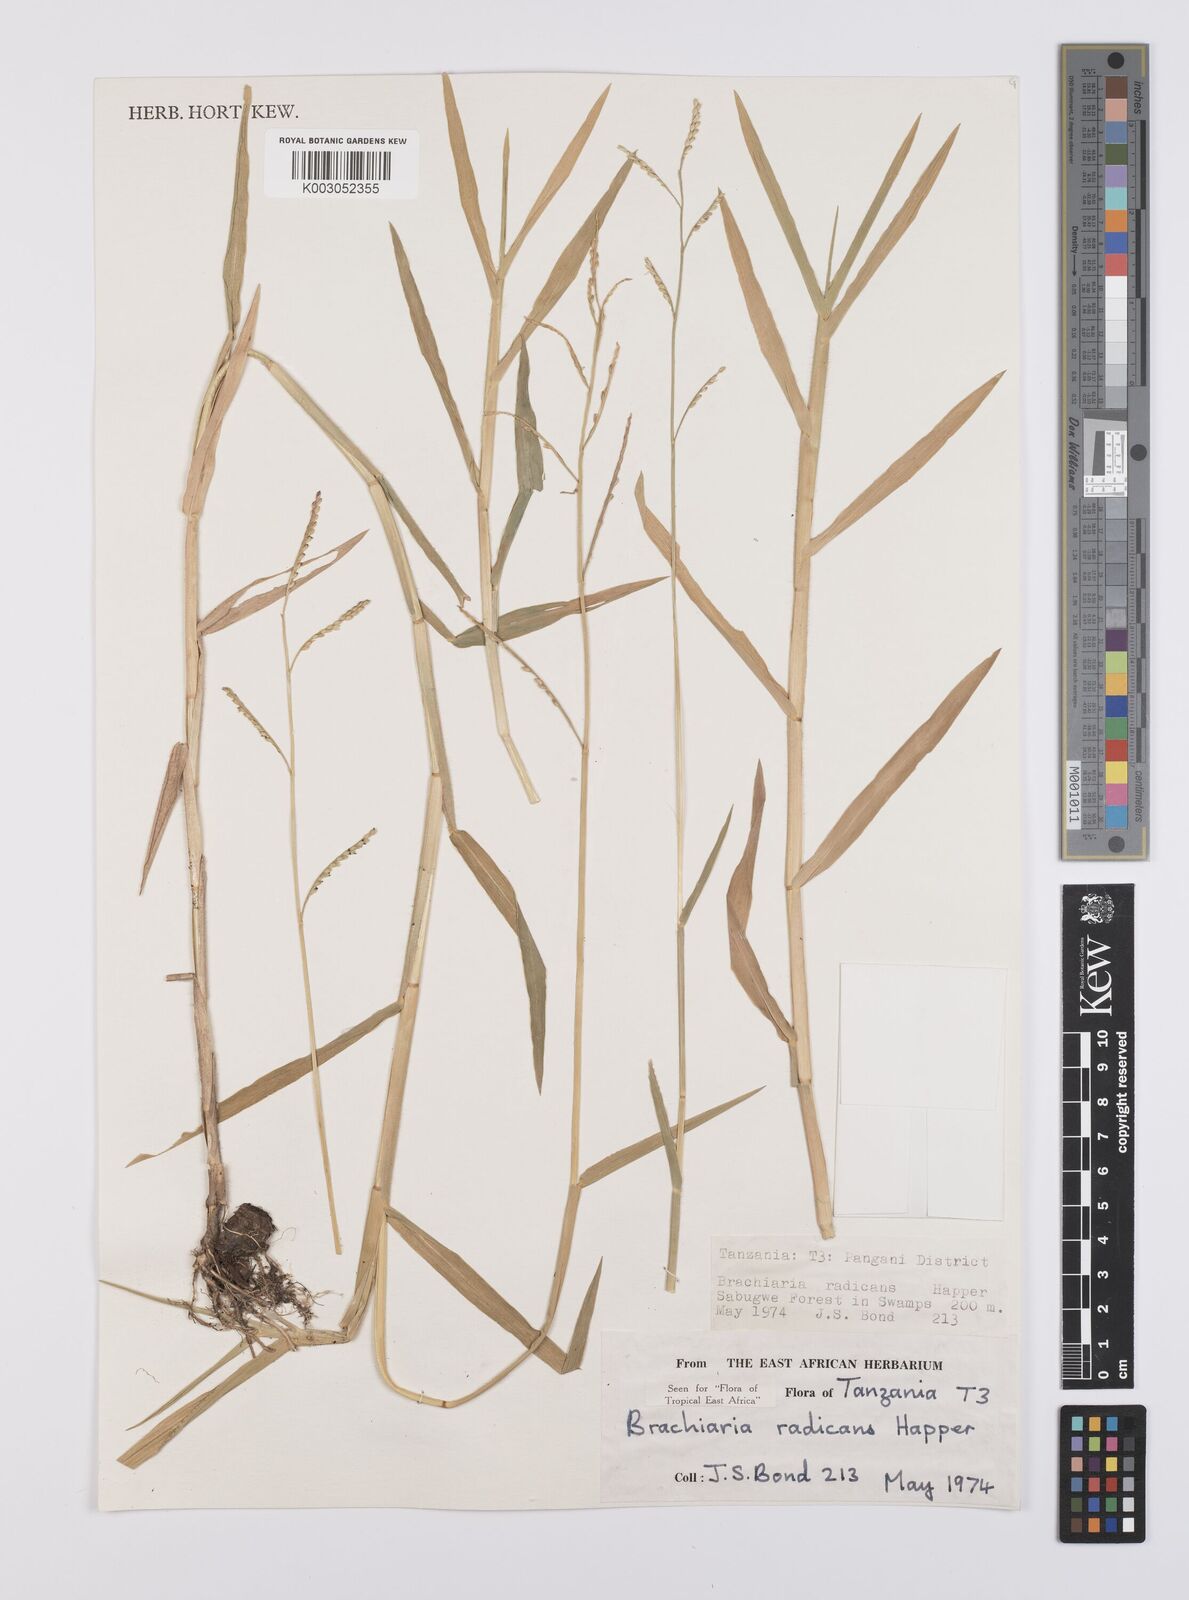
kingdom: Plantae
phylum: Tracheophyta
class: Liliopsida
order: Poales
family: Poaceae
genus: Urochloa
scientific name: Urochloa arrecta
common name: African signalgrass
